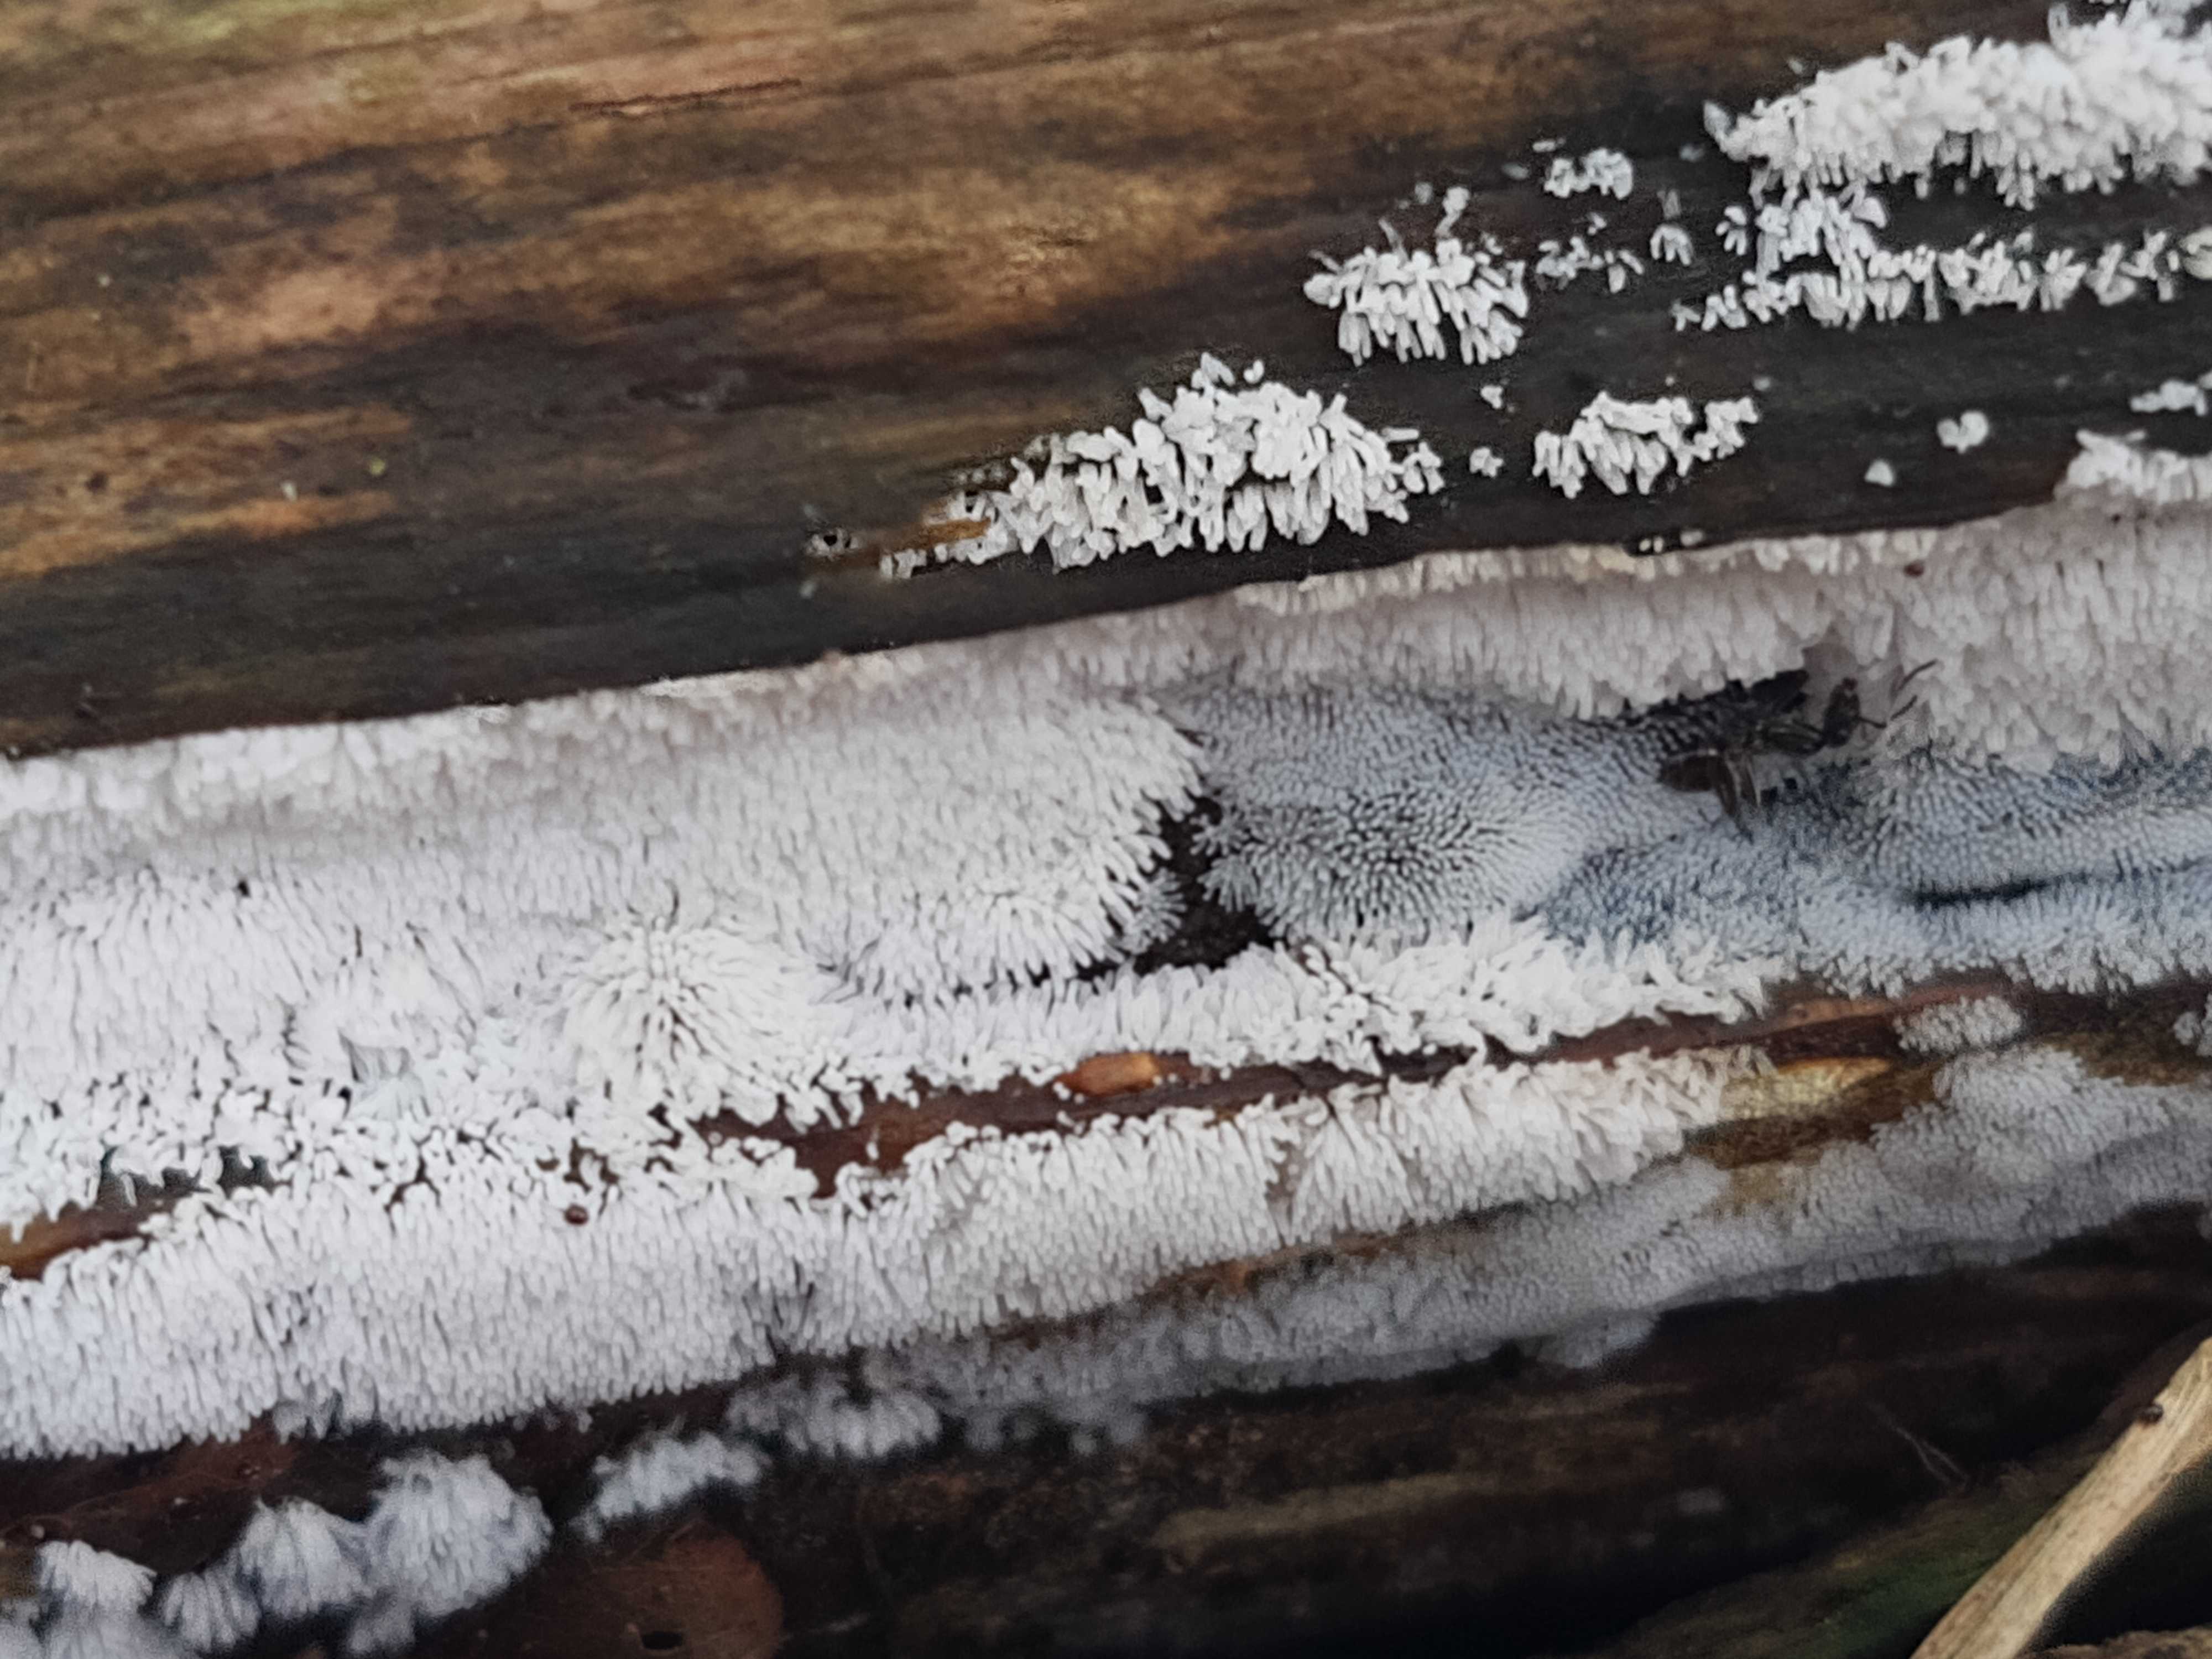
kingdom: Protozoa
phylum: Mycetozoa
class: Protosteliomycetes
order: Ceratiomyxales
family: Ceratiomyxaceae
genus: Ceratiomyxa
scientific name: Ceratiomyxa fruticulosa
